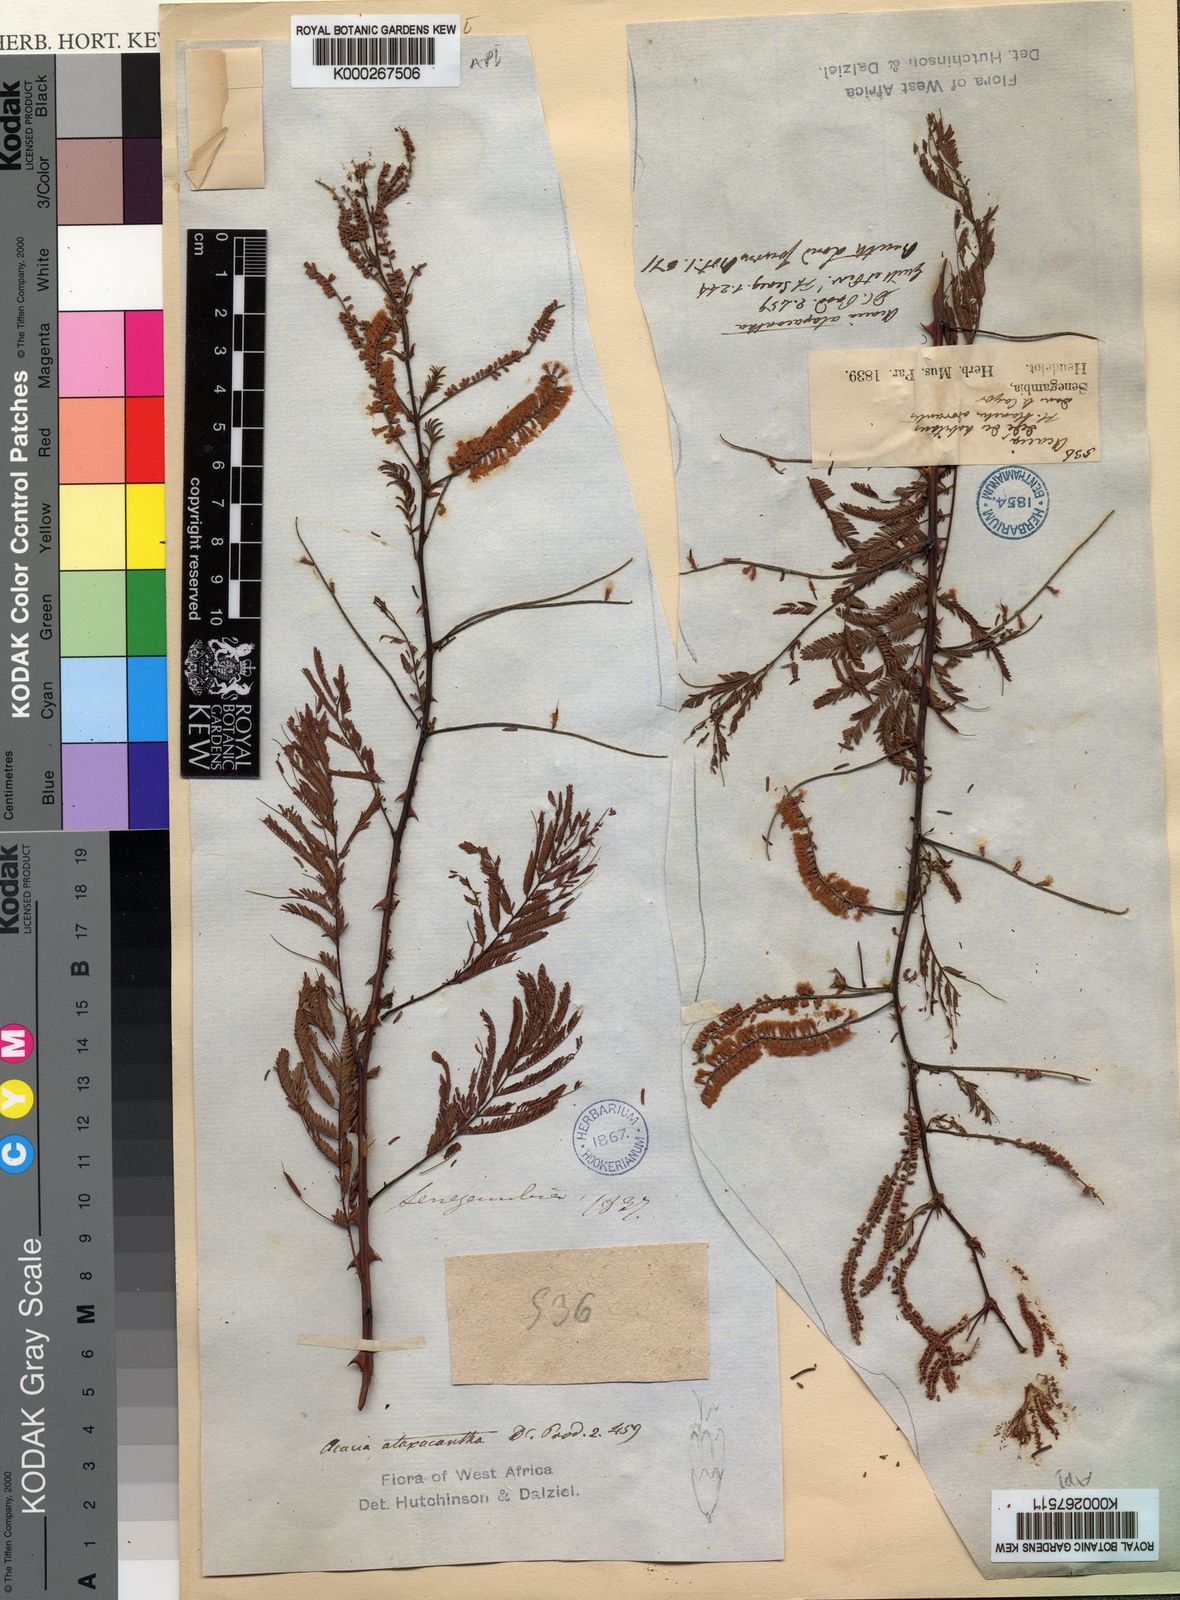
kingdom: Plantae
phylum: Tracheophyta
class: Magnoliopsida
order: Fabales
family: Fabaceae
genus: Senegalia
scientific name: Senegalia ataxacantha
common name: Flame acacia
